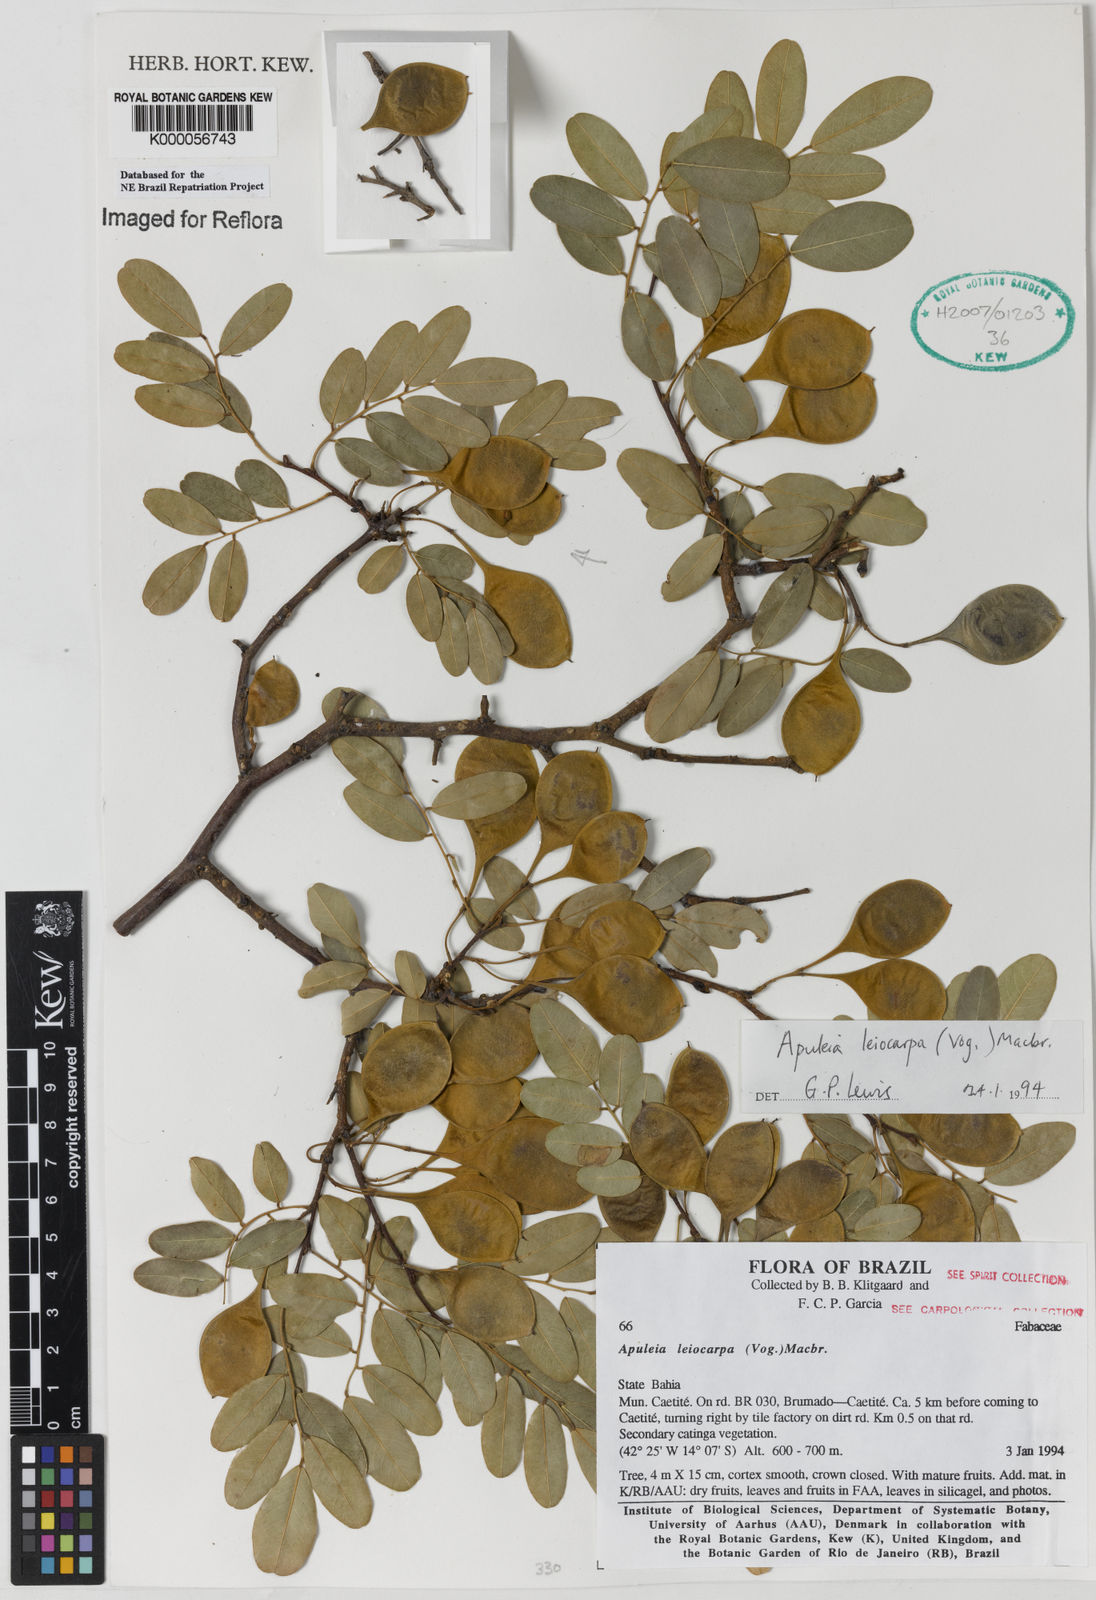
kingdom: Plantae
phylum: Tracheophyta
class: Magnoliopsida
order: Fabales
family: Fabaceae
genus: Apuleia
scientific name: Apuleia leiocarpa
